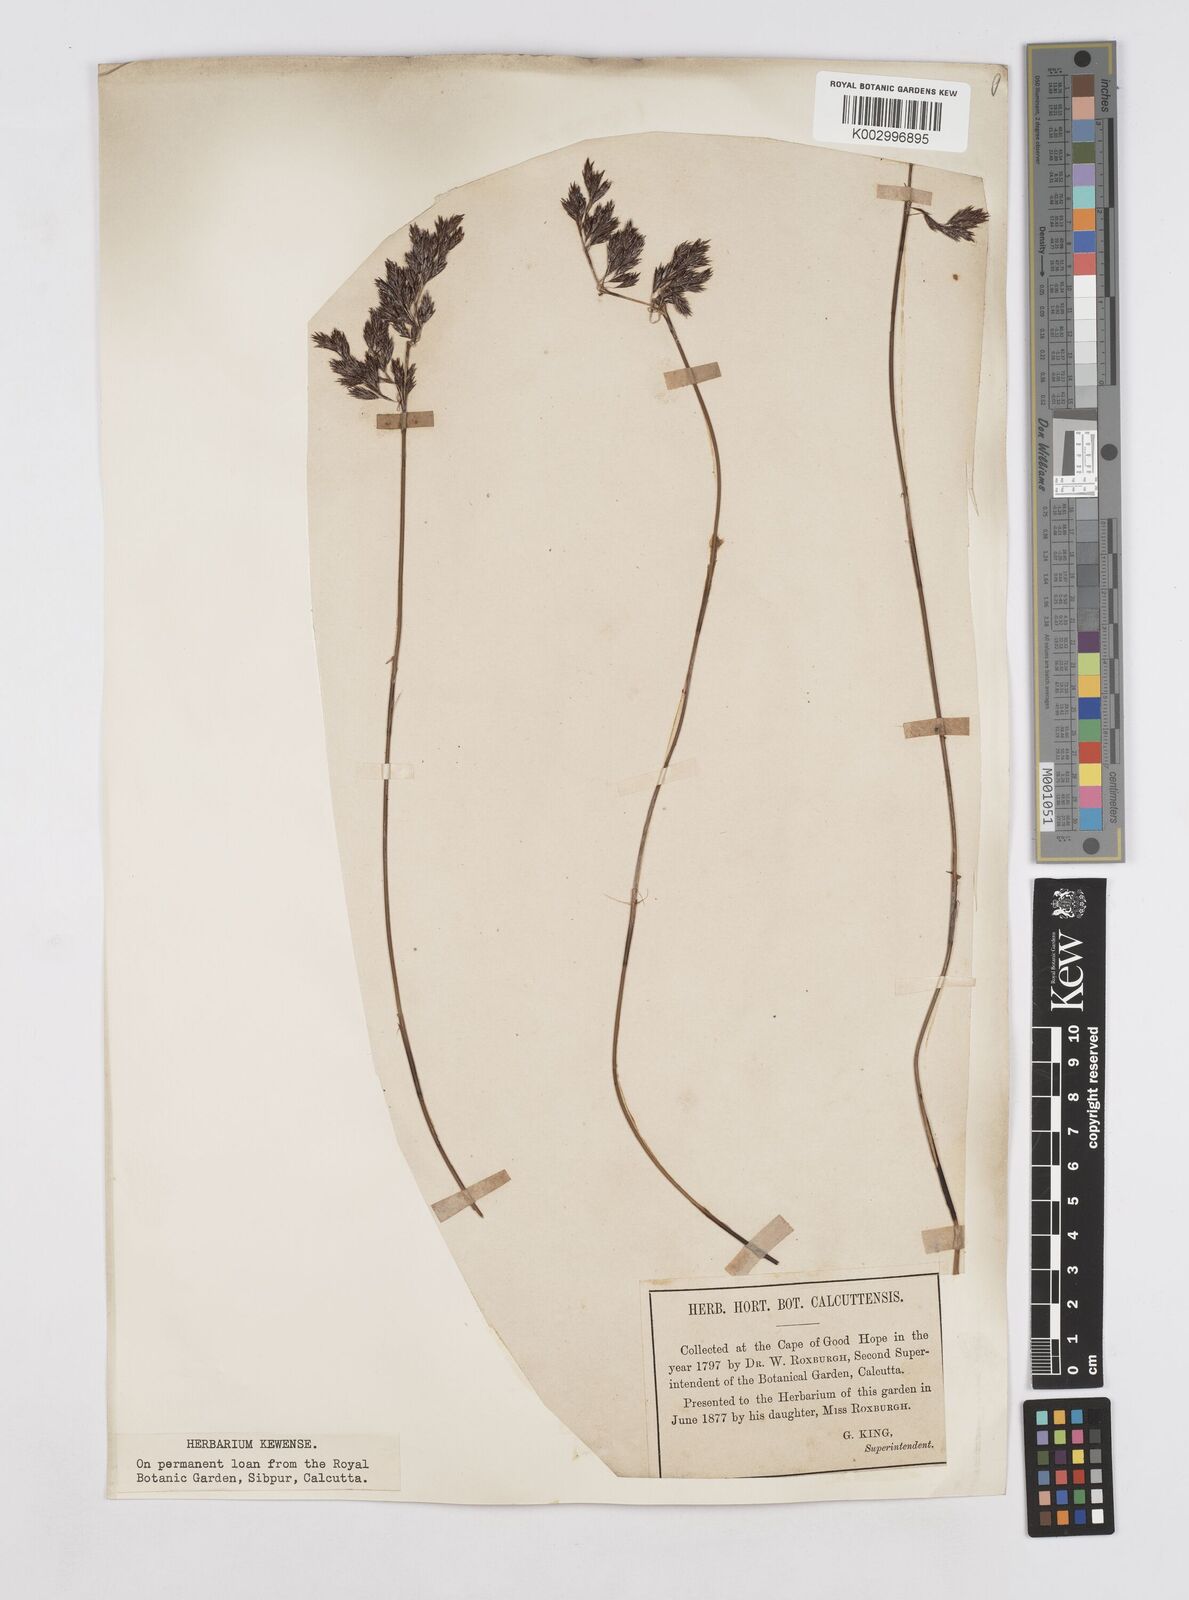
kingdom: Plantae
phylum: Tracheophyta
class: Liliopsida
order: Poales
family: Restionaceae
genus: Thamnochortus
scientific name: Thamnochortus lucens
